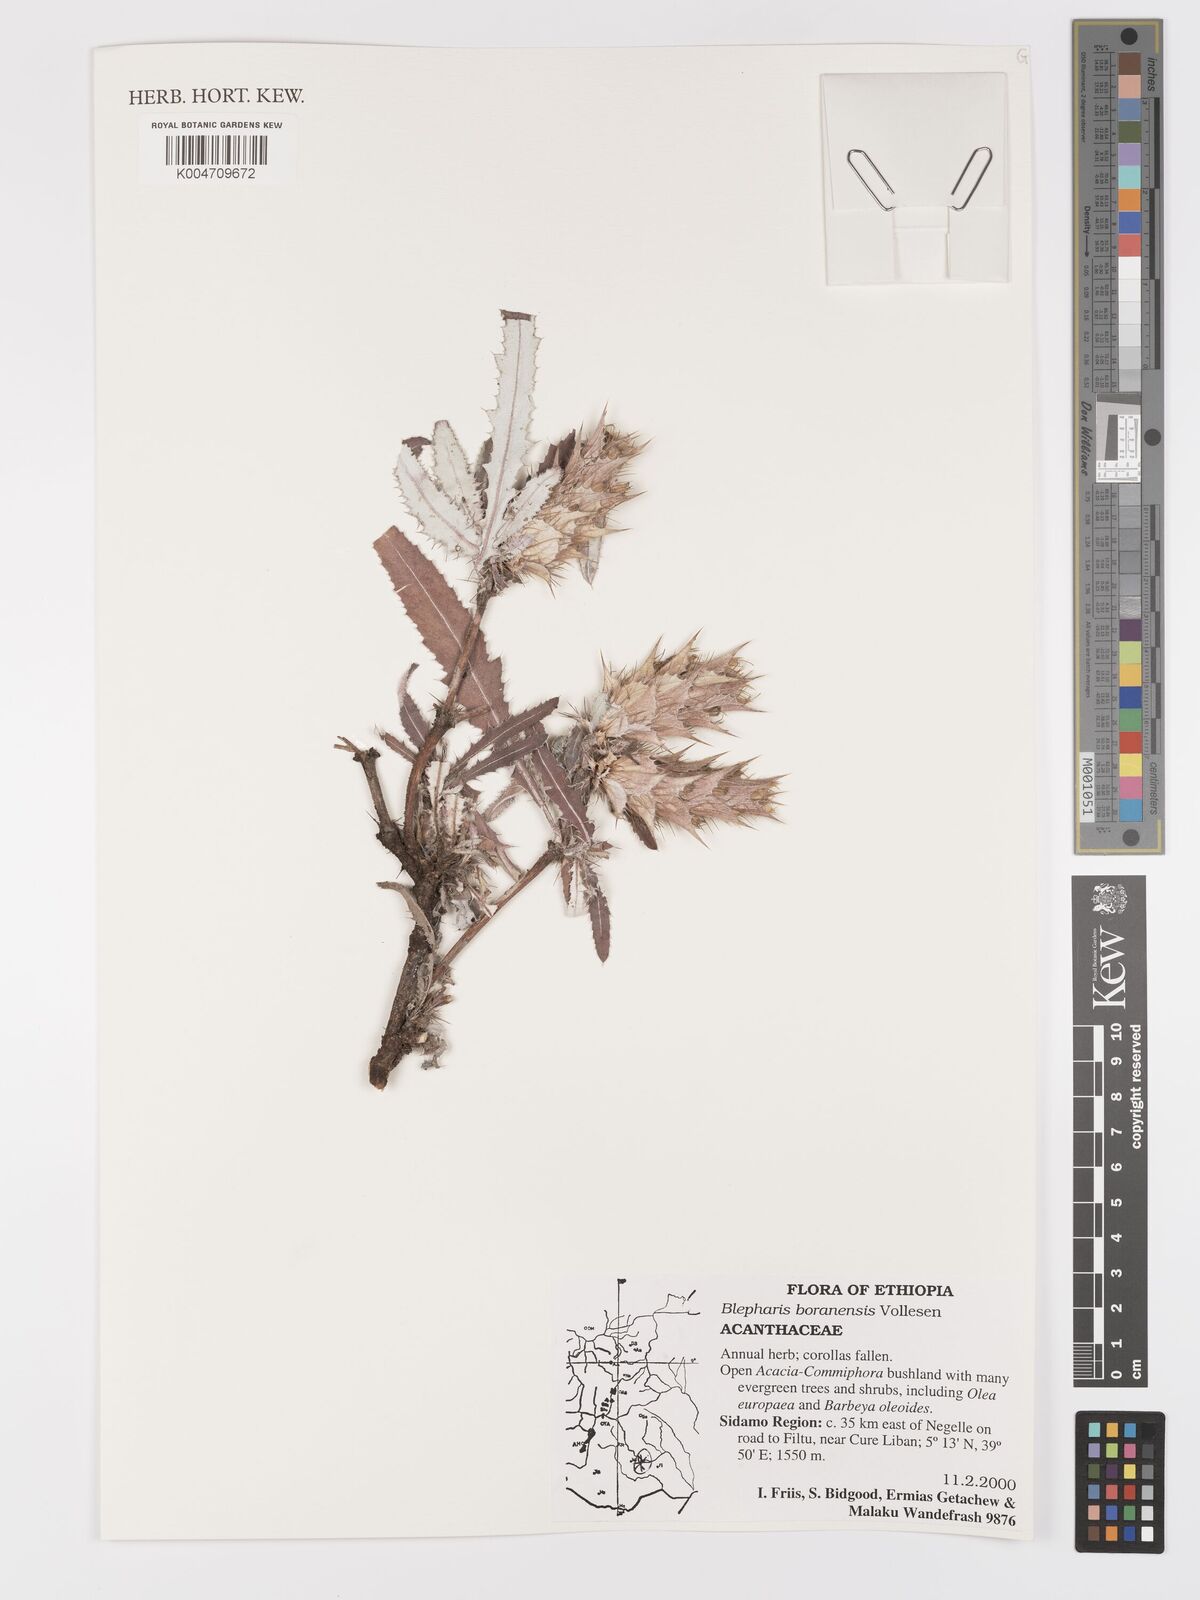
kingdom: Plantae
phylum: Tracheophyta
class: Magnoliopsida
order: Lamiales
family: Acanthaceae
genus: Blepharis
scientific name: Blepharis boranensis
